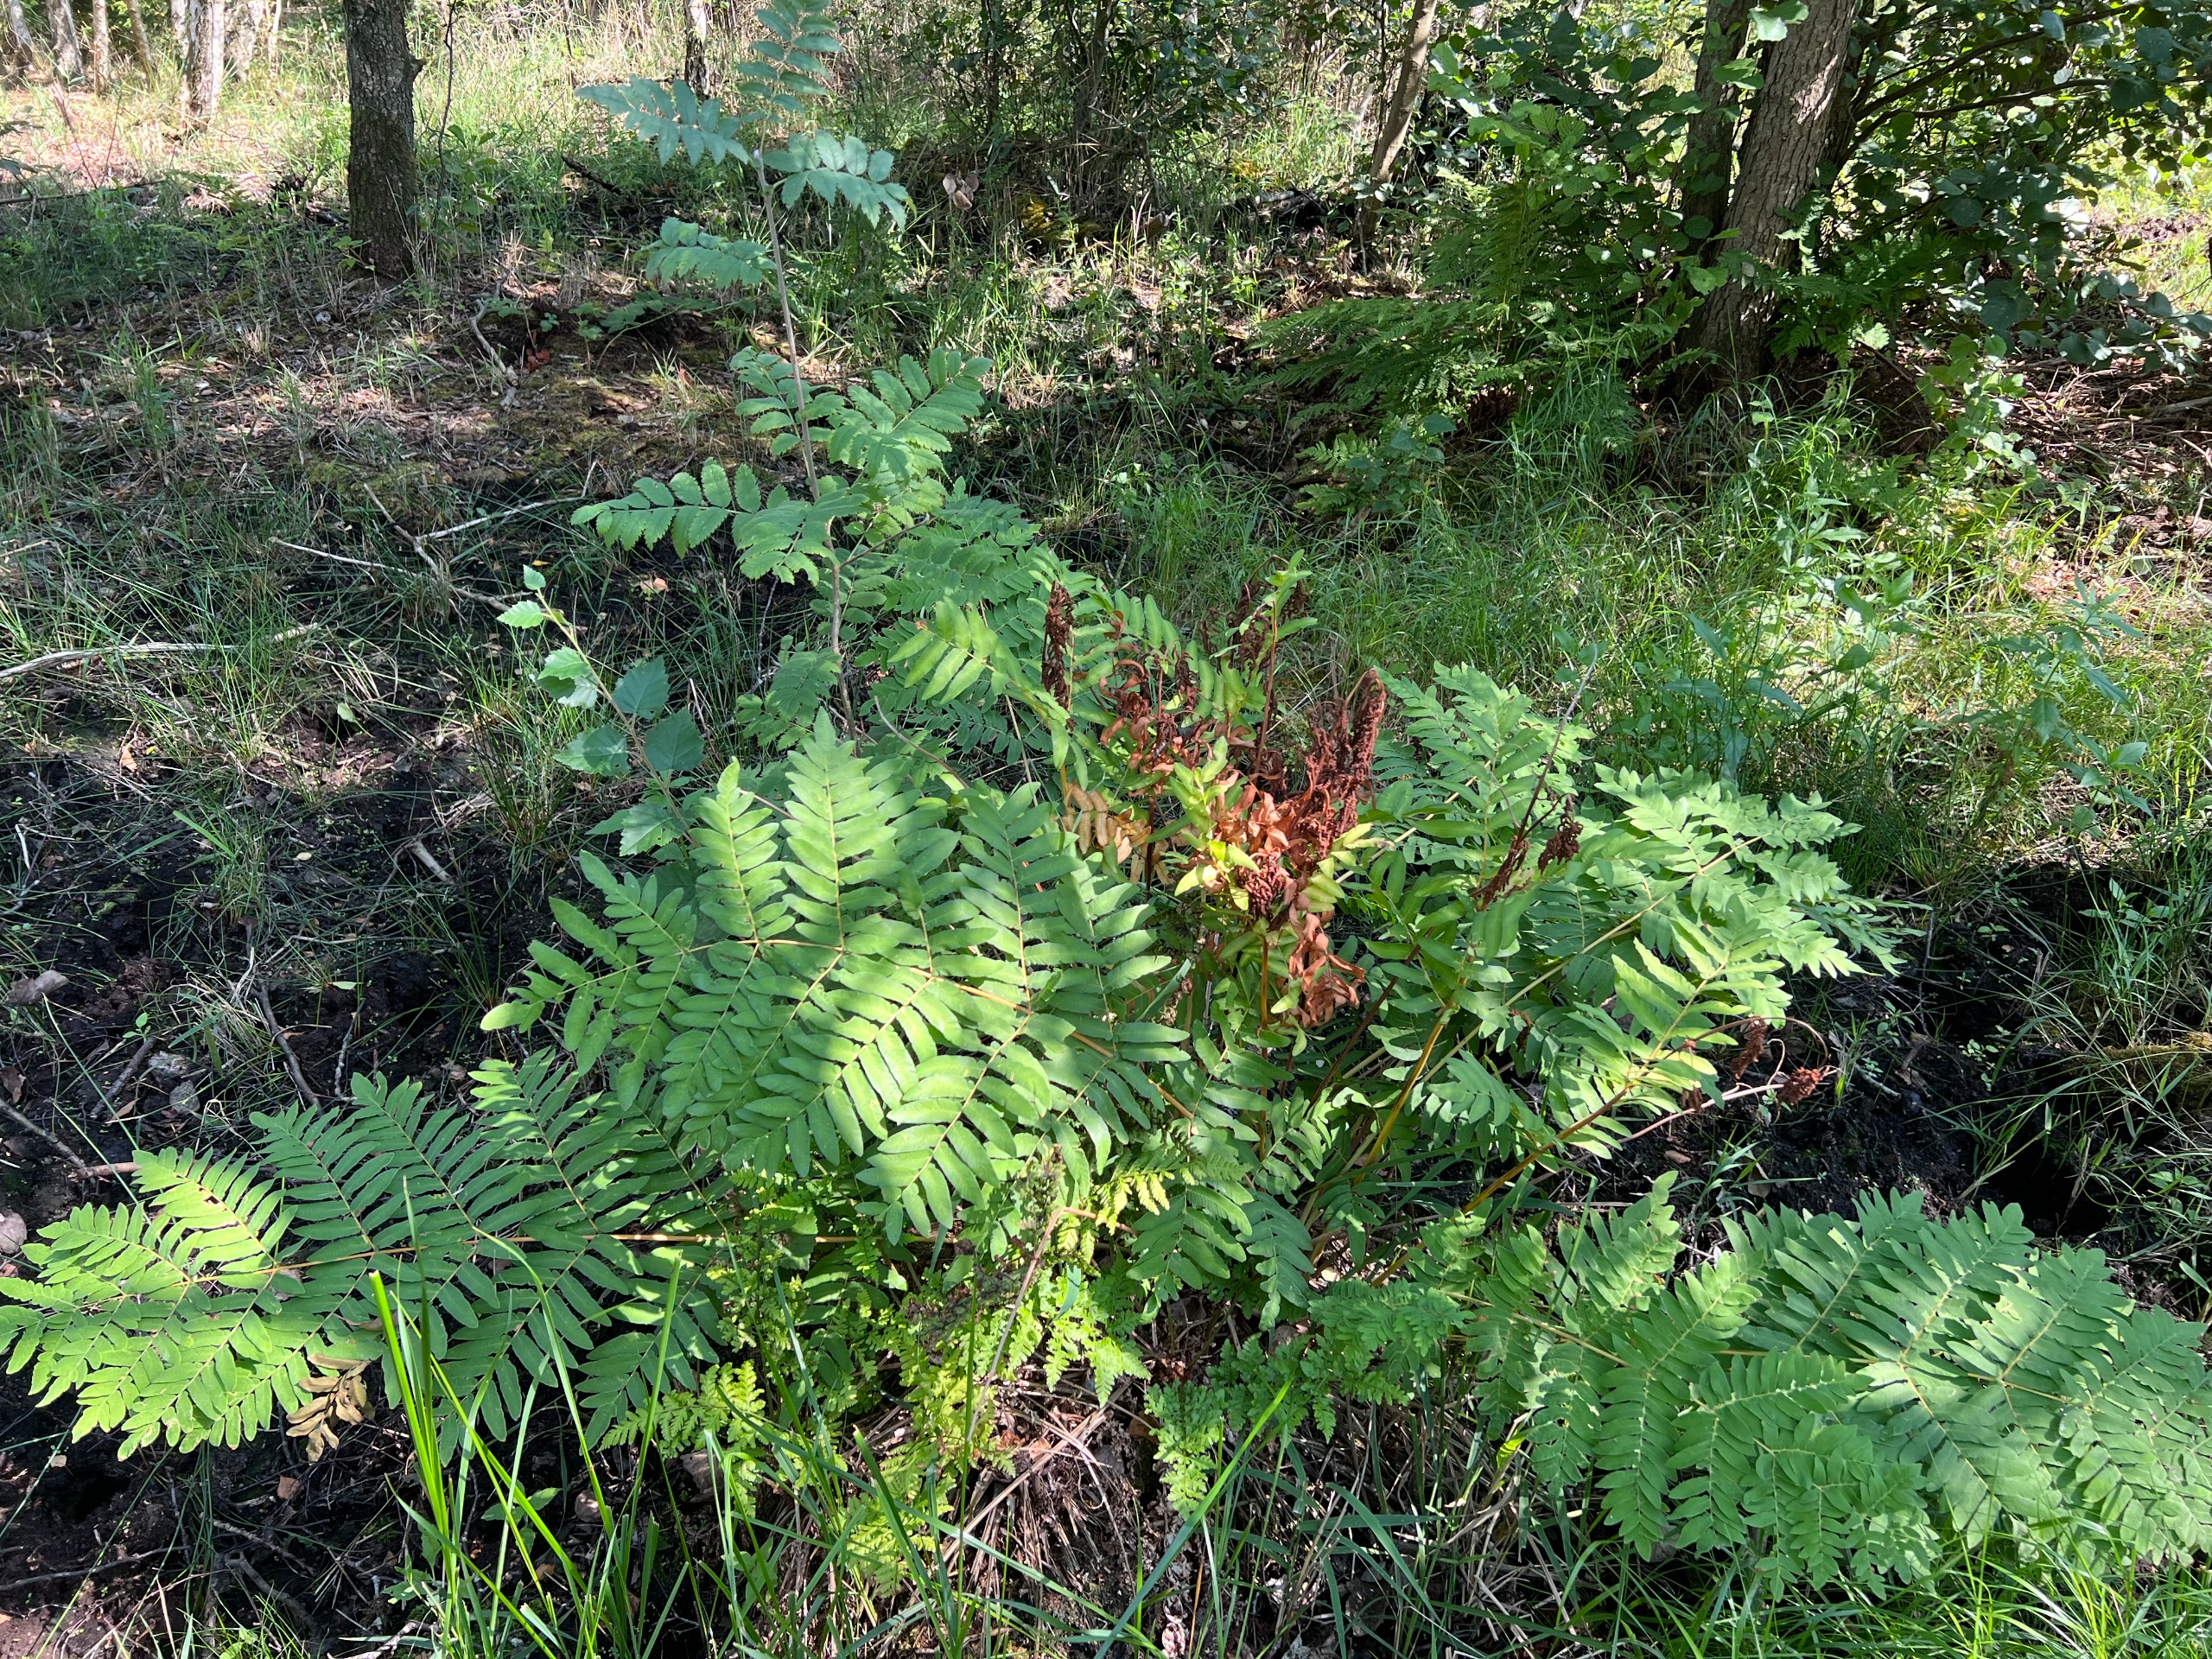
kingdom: Plantae
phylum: Tracheophyta
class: Polypodiopsida
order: Osmundales
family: Osmundaceae
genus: Osmunda
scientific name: Osmunda regalis
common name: Kongebregne
